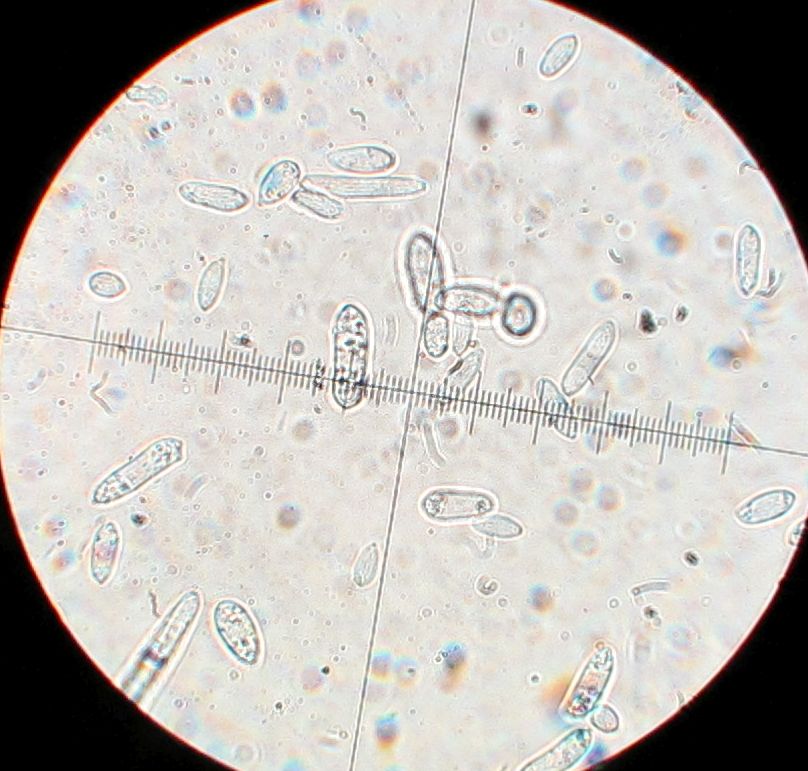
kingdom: Fungi
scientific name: Fungi
